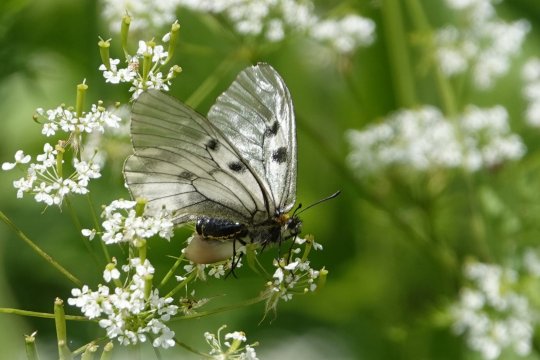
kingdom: Animalia
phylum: Arthropoda
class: Insecta
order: Lepidoptera
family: Papilionidae
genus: Parnassius
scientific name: Parnassius mnemosyne
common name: Clouded Apollo
